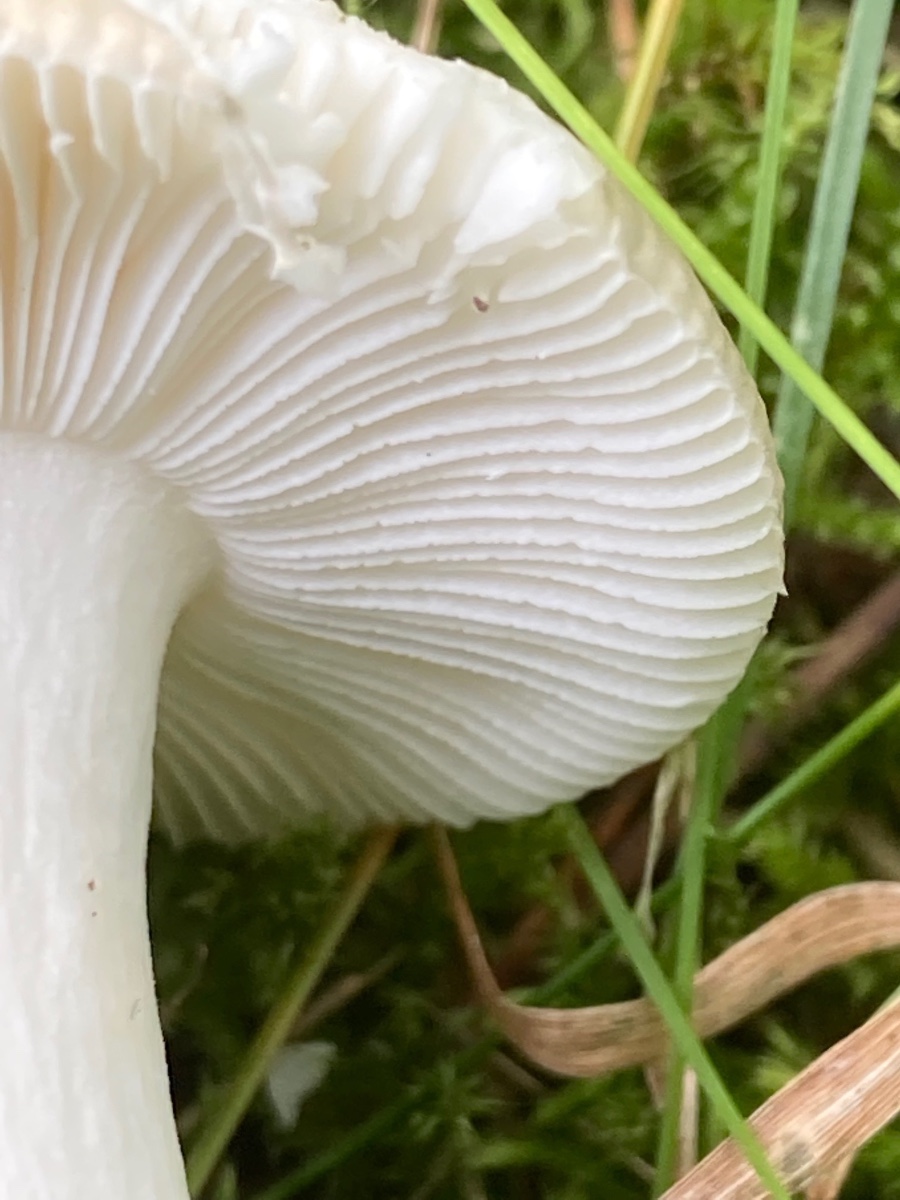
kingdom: Fungi
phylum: Basidiomycota
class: Agaricomycetes
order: Russulales
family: Russulaceae
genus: Russula
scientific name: Russula fragilis
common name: savbladet skørhat
